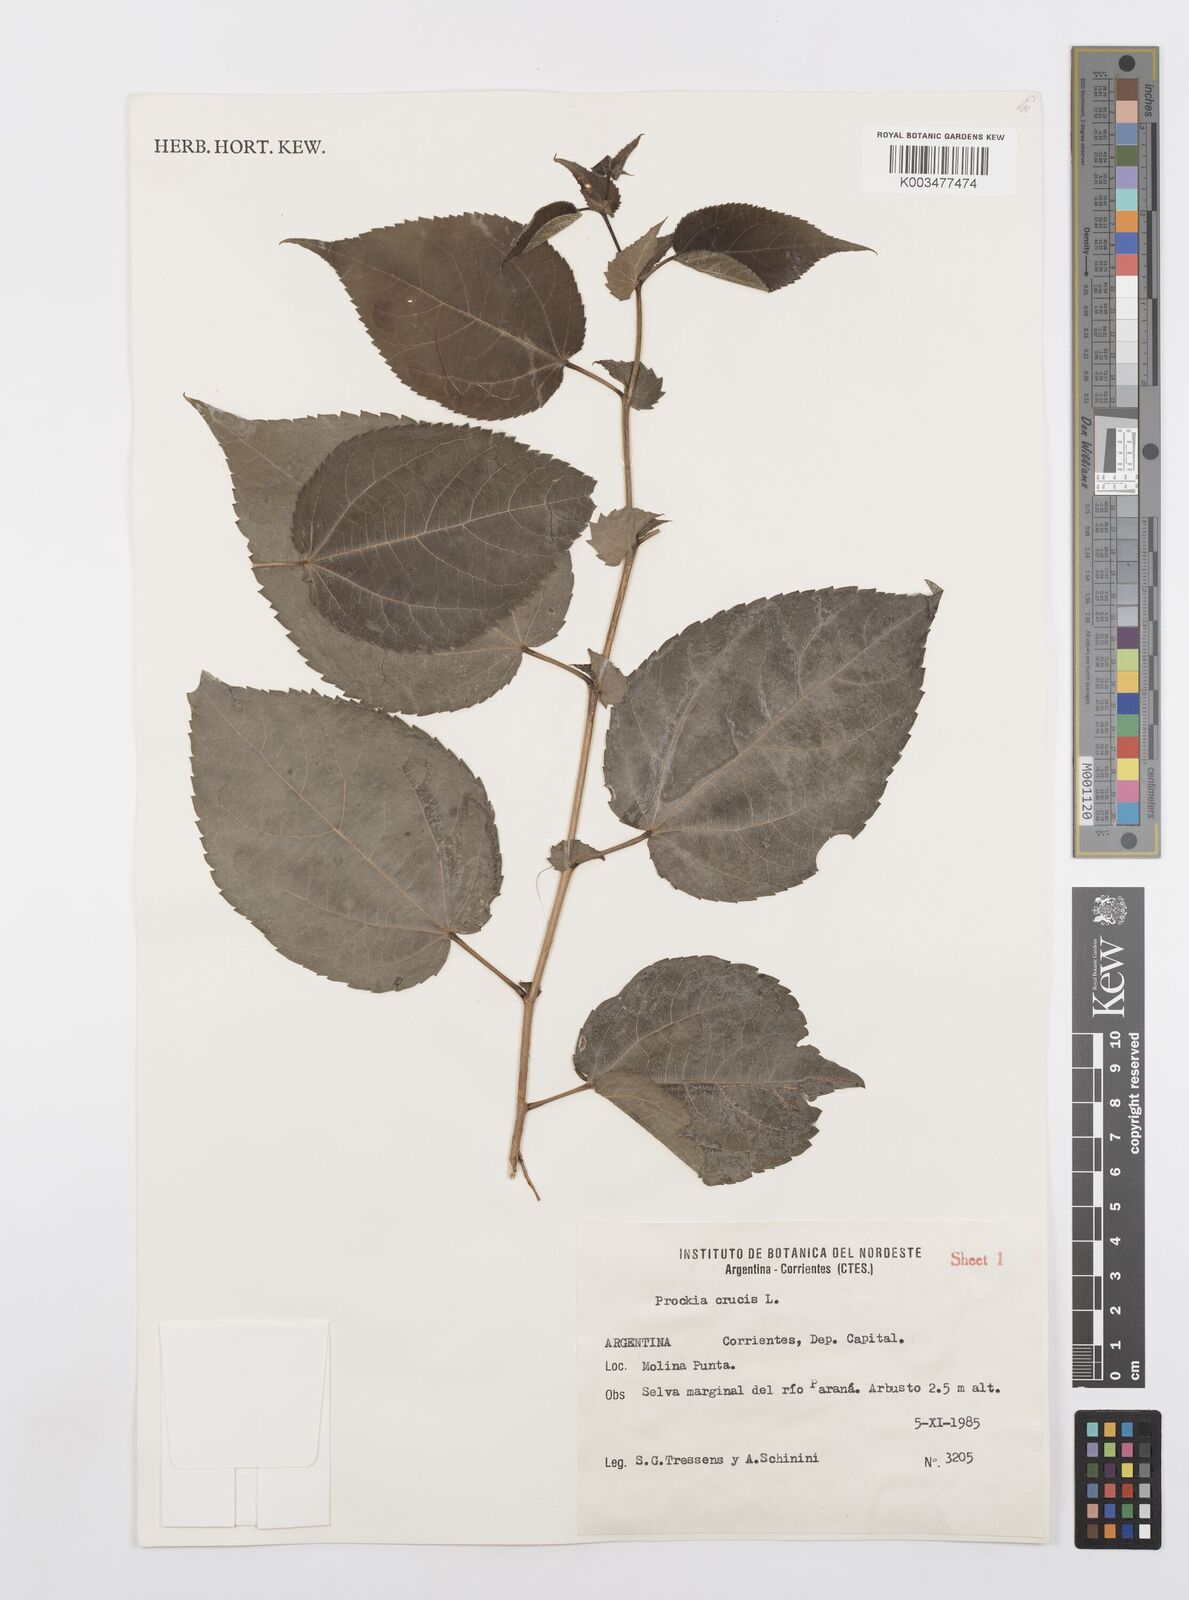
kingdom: Plantae
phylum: Tracheophyta
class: Magnoliopsida
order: Malpighiales
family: Salicaceae
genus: Prockia
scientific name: Prockia crucis
